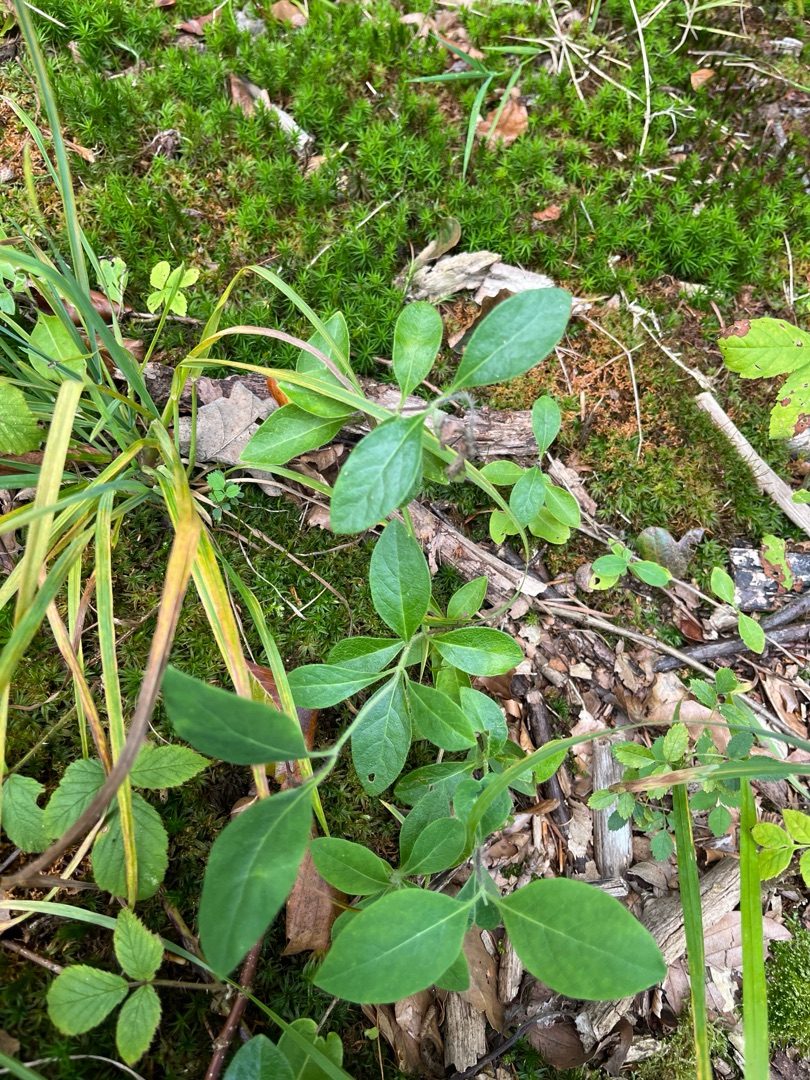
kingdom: Plantae
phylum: Tracheophyta
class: Magnoliopsida
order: Dipsacales
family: Caprifoliaceae
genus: Lonicera
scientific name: Lonicera periclymenum
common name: Almindelig gedeblad
